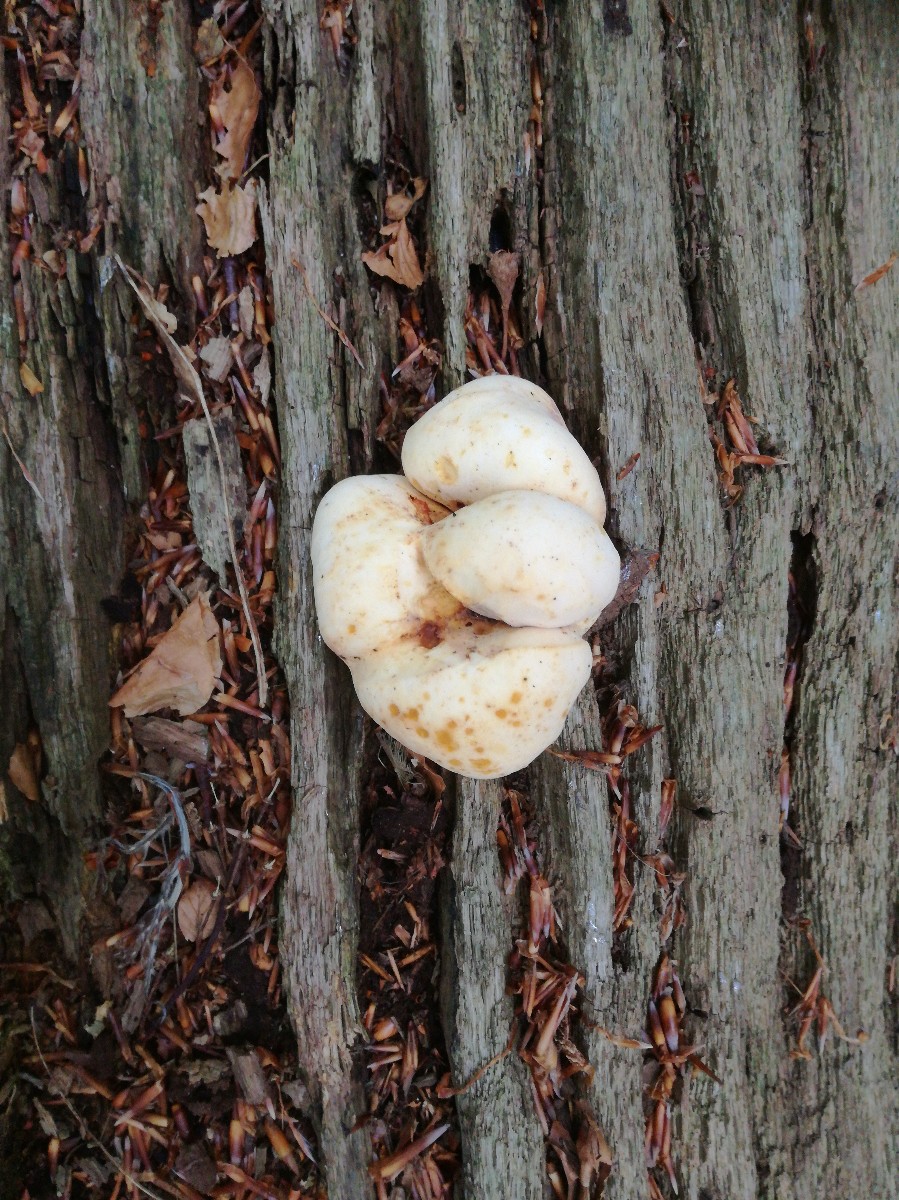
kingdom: Fungi
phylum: Basidiomycota
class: Agaricomycetes
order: Polyporales
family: Fomitopsidaceae
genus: Buglossoporus
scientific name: Buglossoporus quercinus
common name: egetunge
